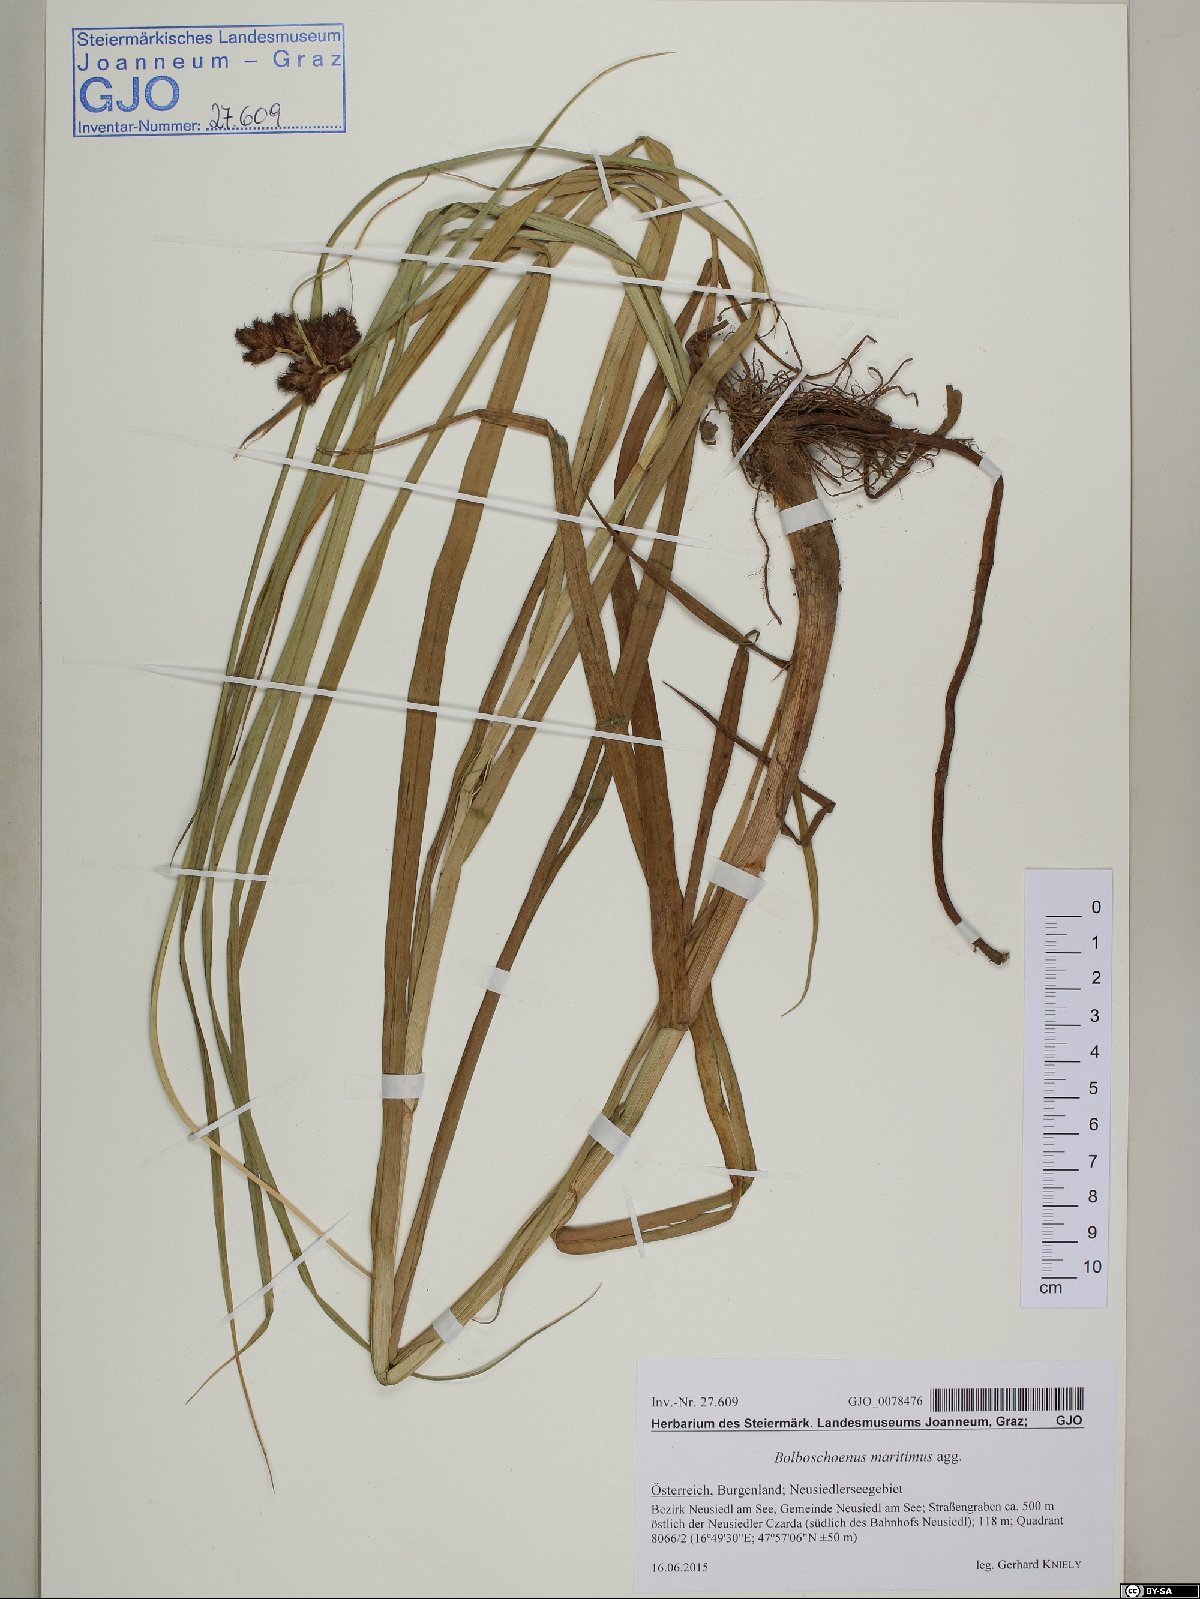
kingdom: Plantae
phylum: Tracheophyta
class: Liliopsida
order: Poales
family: Cyperaceae
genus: Bolboschoenus
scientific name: Bolboschoenus maritimus
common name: Sea club-rush
